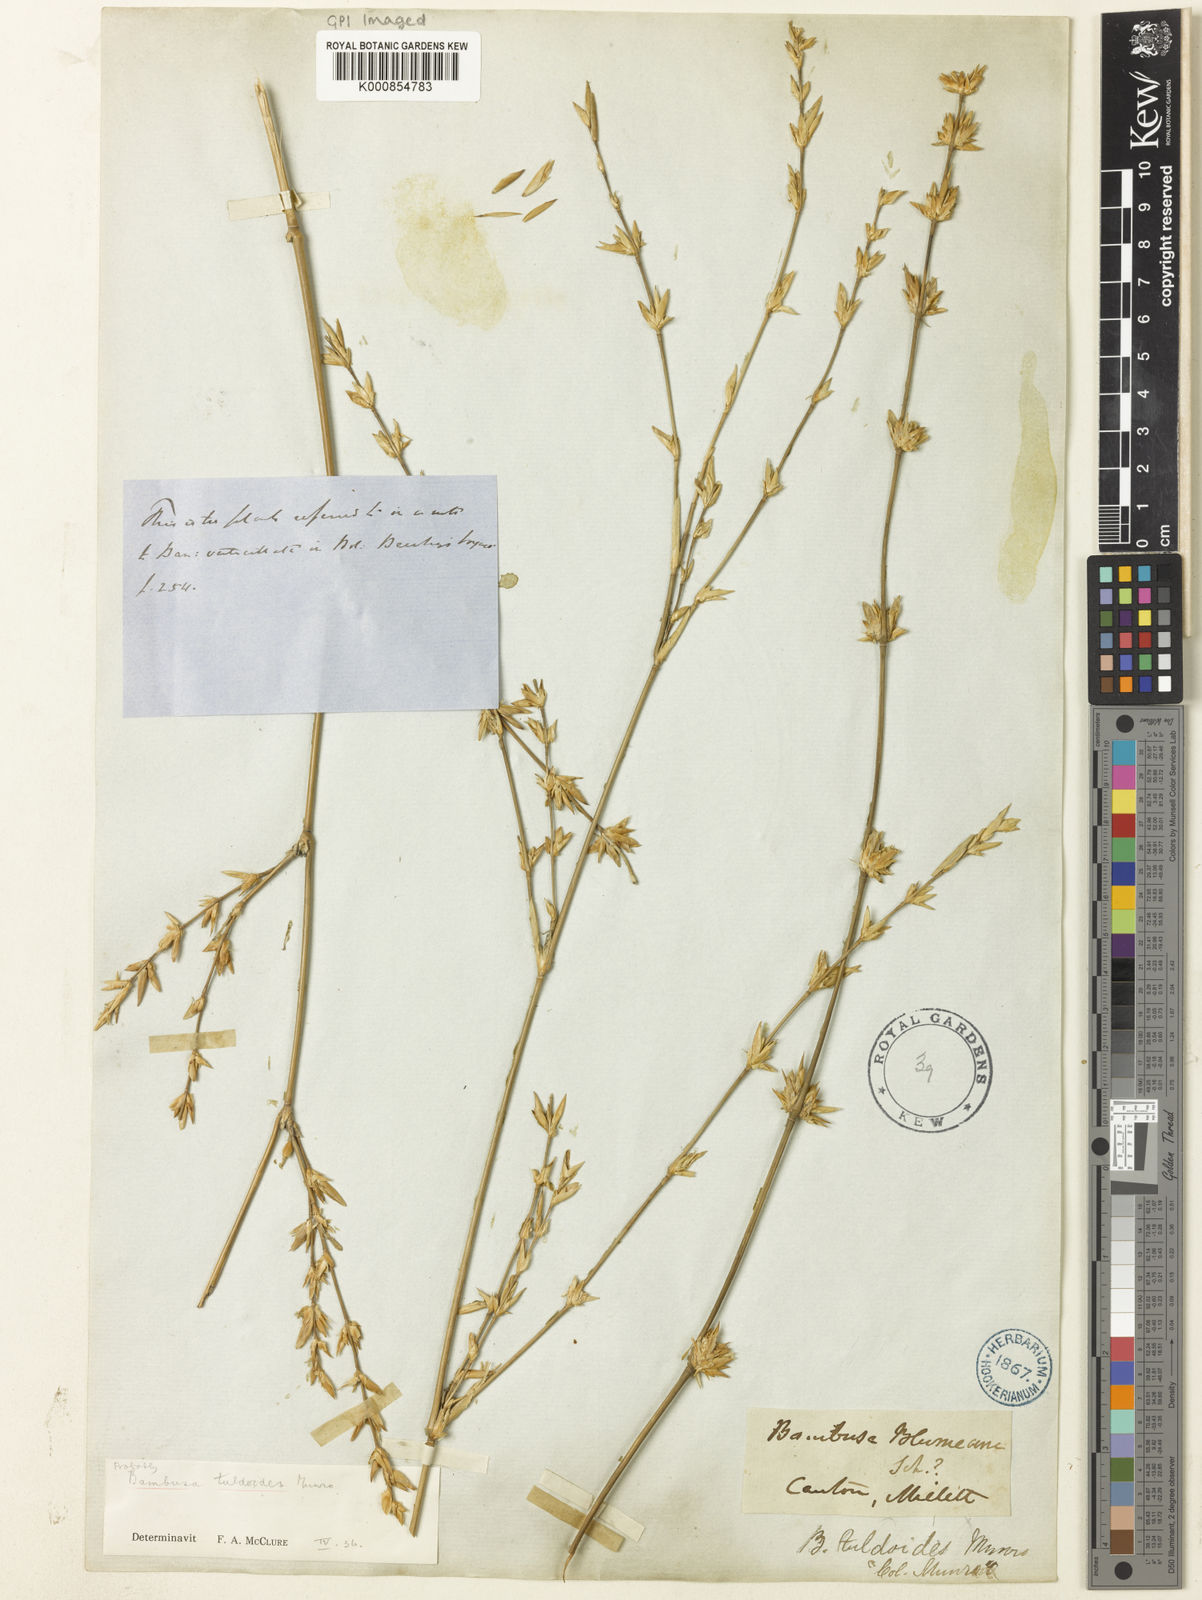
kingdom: Plantae
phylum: Tracheophyta
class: Liliopsida
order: Poales
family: Poaceae
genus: Bambusa
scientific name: Bambusa tuldoides
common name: Verdant bamboo
